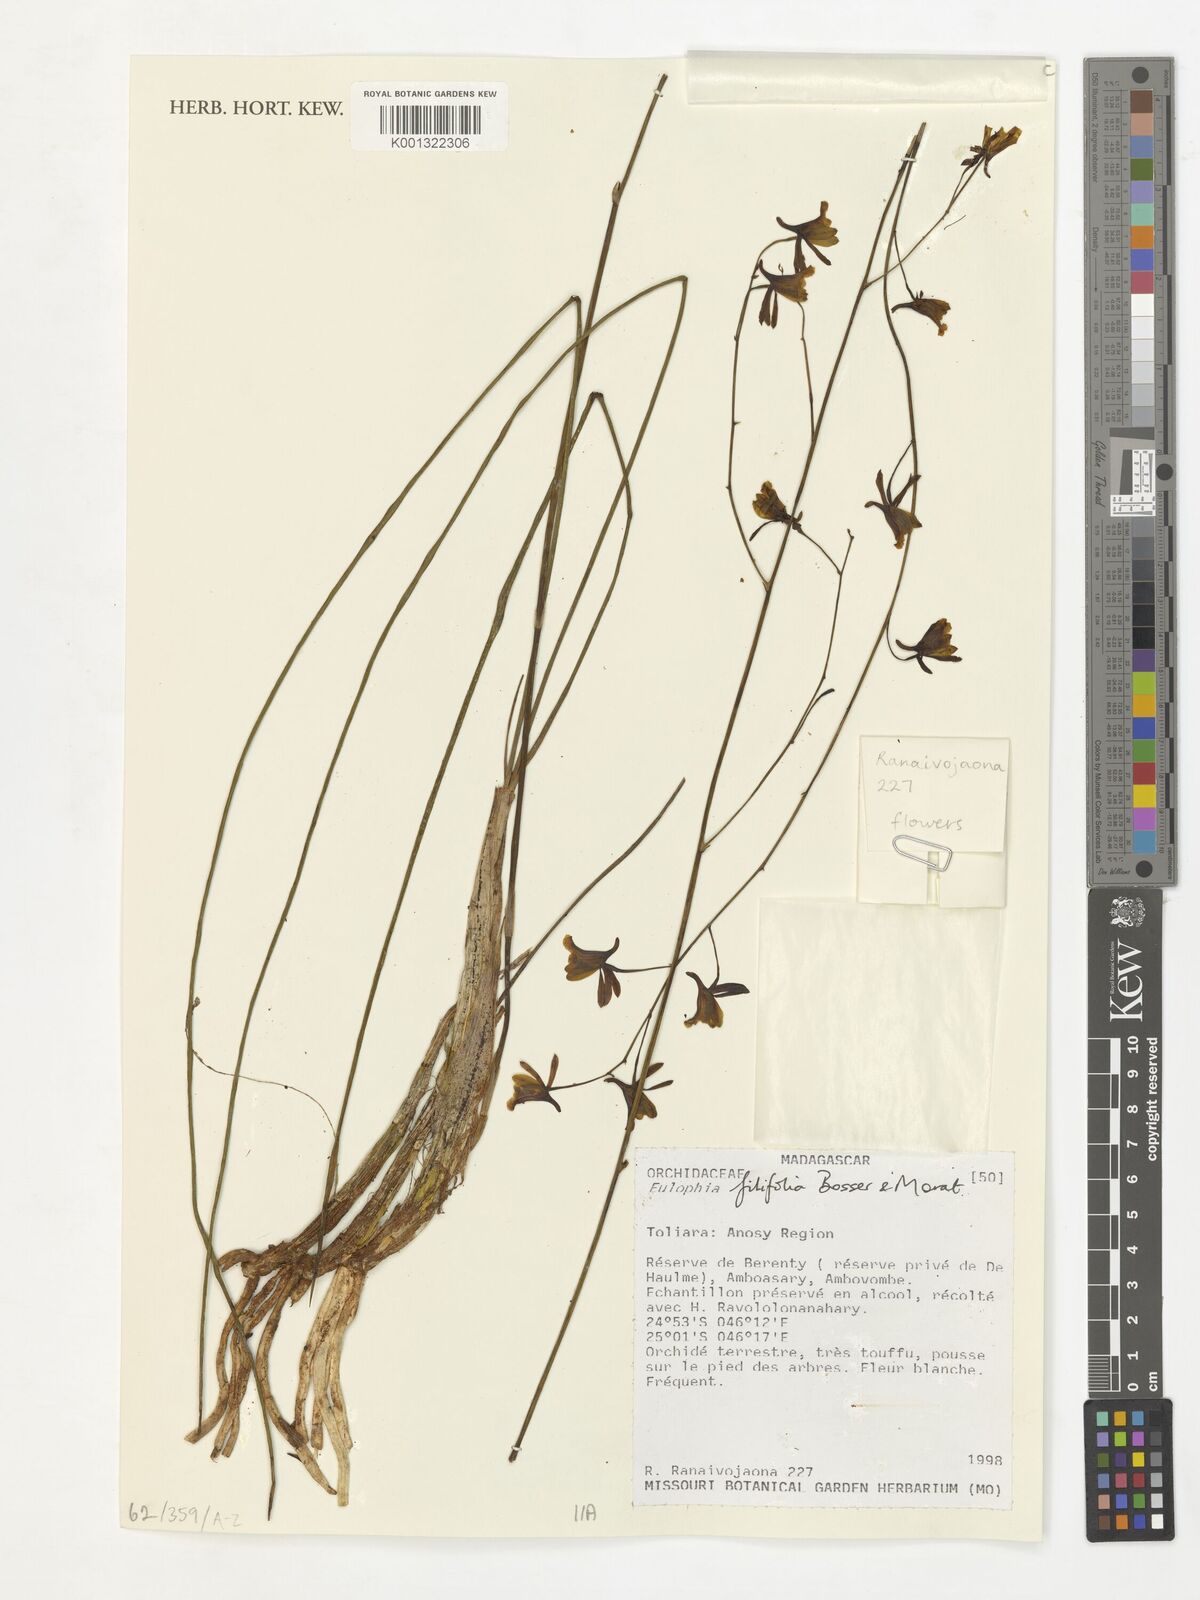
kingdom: Plantae
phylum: Tracheophyta
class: Liliopsida
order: Asparagales
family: Orchidaceae
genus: Eulophia
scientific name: Eulophia filifolia
